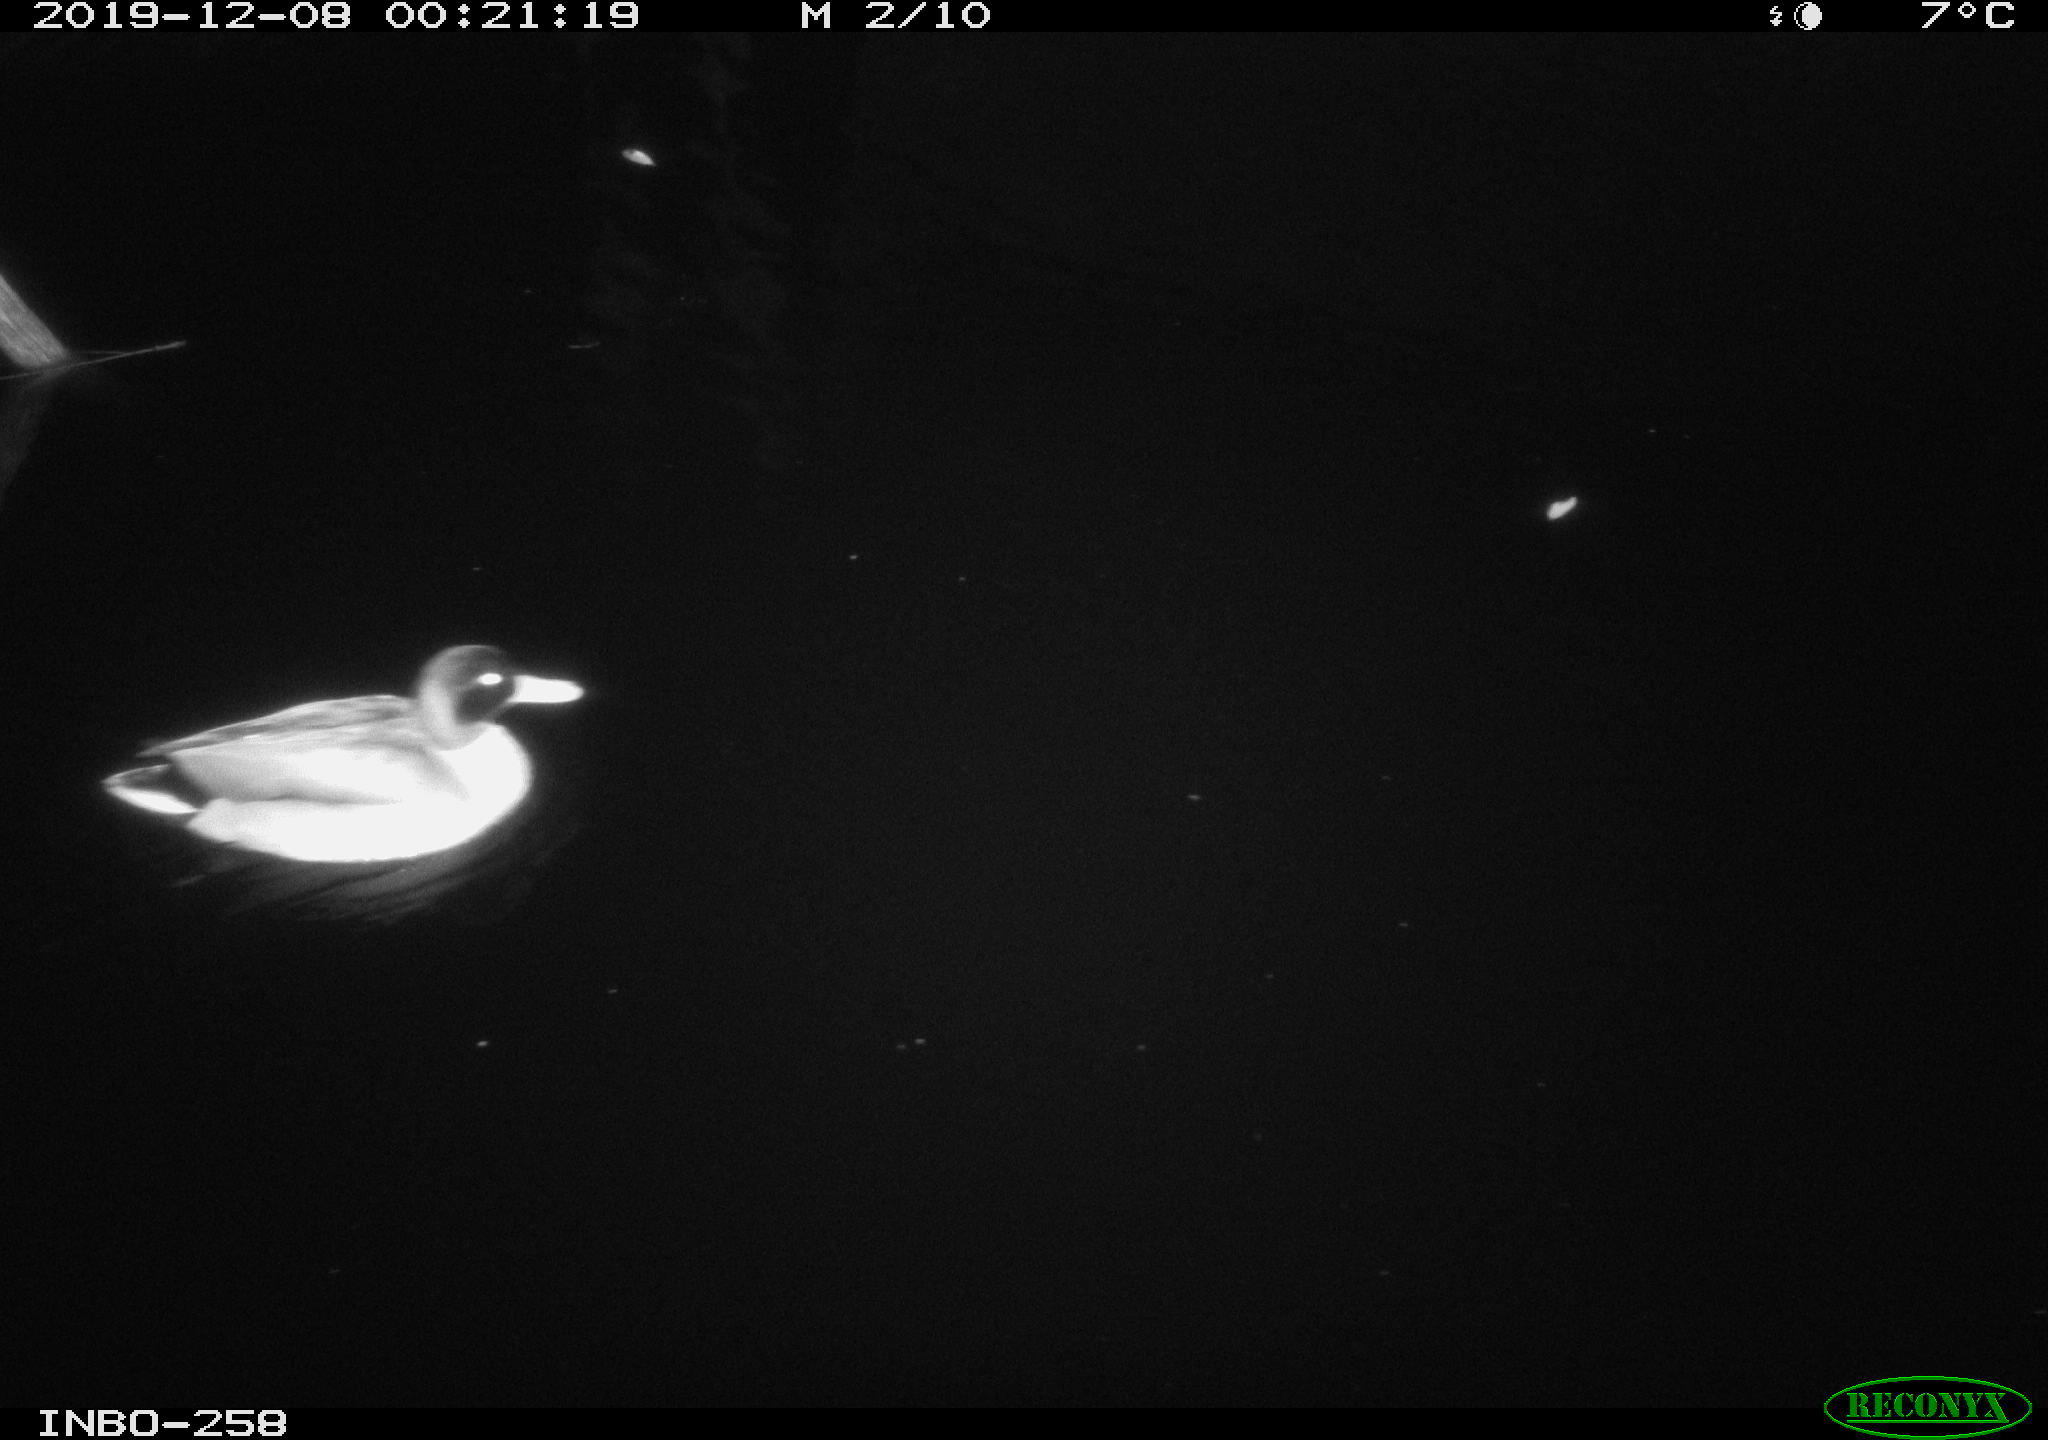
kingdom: Animalia
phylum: Chordata
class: Aves
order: Anseriformes
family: Anatidae
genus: Anas
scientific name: Anas platyrhynchos
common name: Mallard
